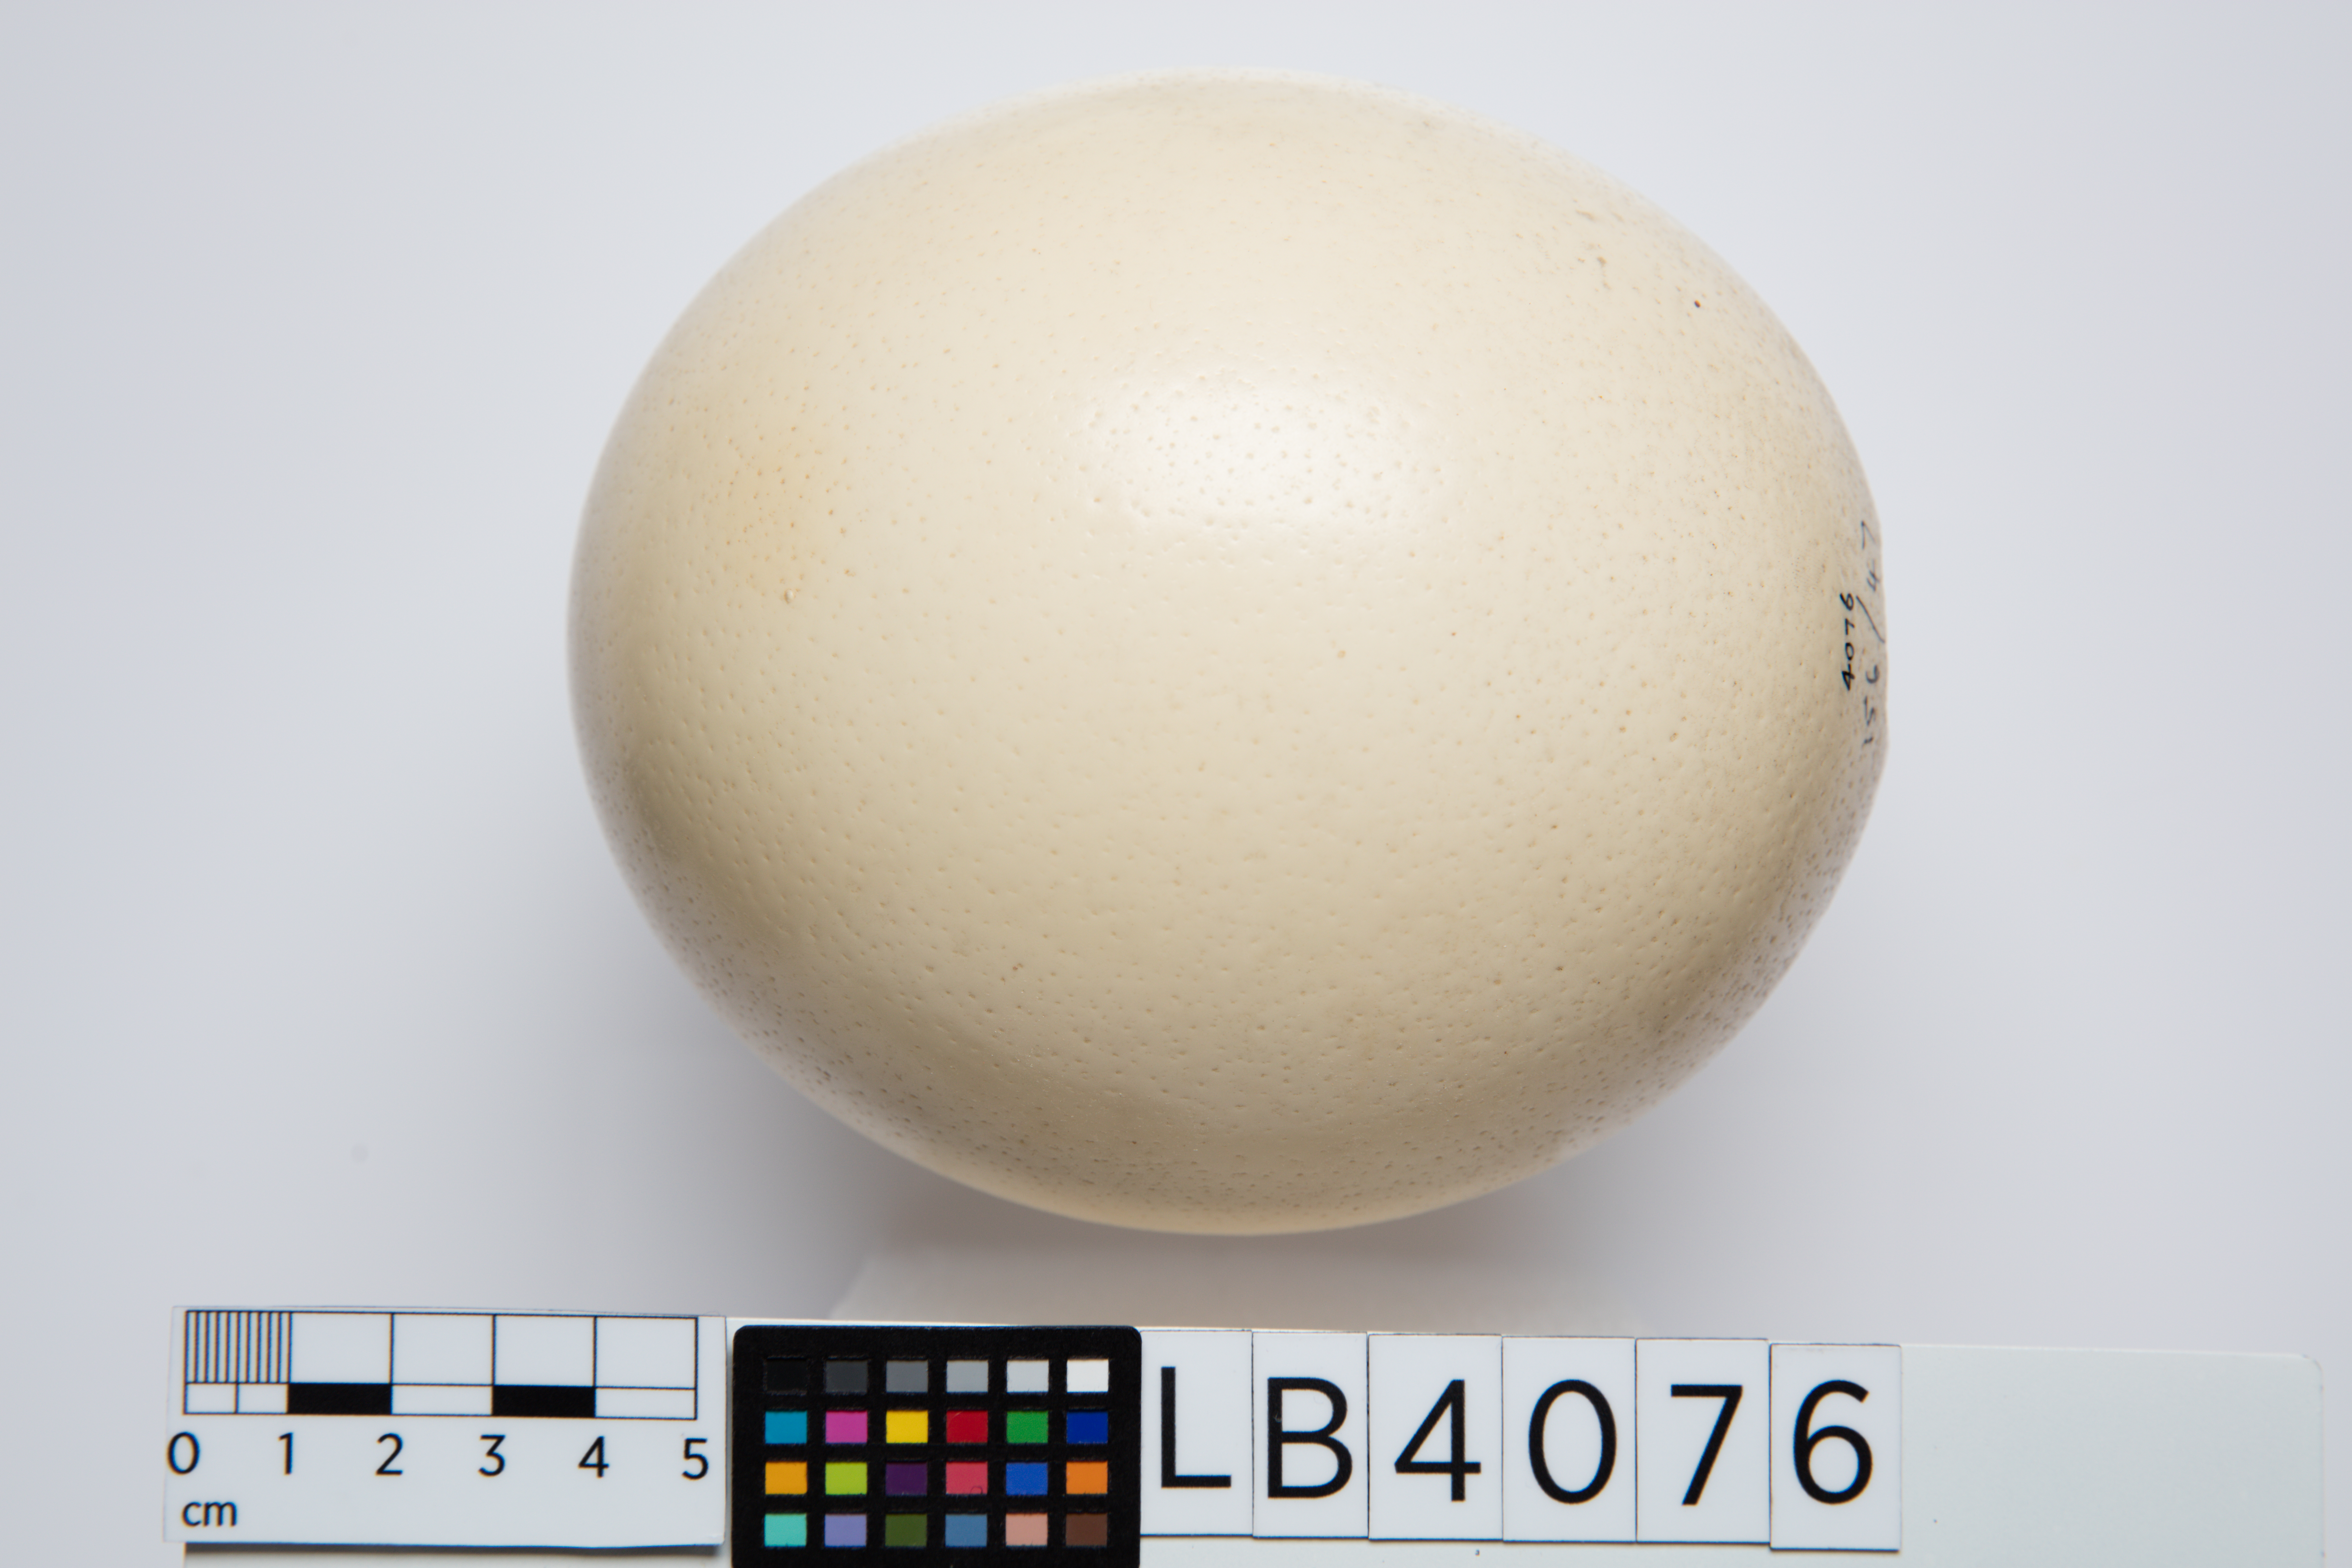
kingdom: Animalia
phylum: Chordata
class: Aves
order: Struthioniformes
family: Struthionidae
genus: Struthio
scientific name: Struthio camelus
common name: Common ostrich
